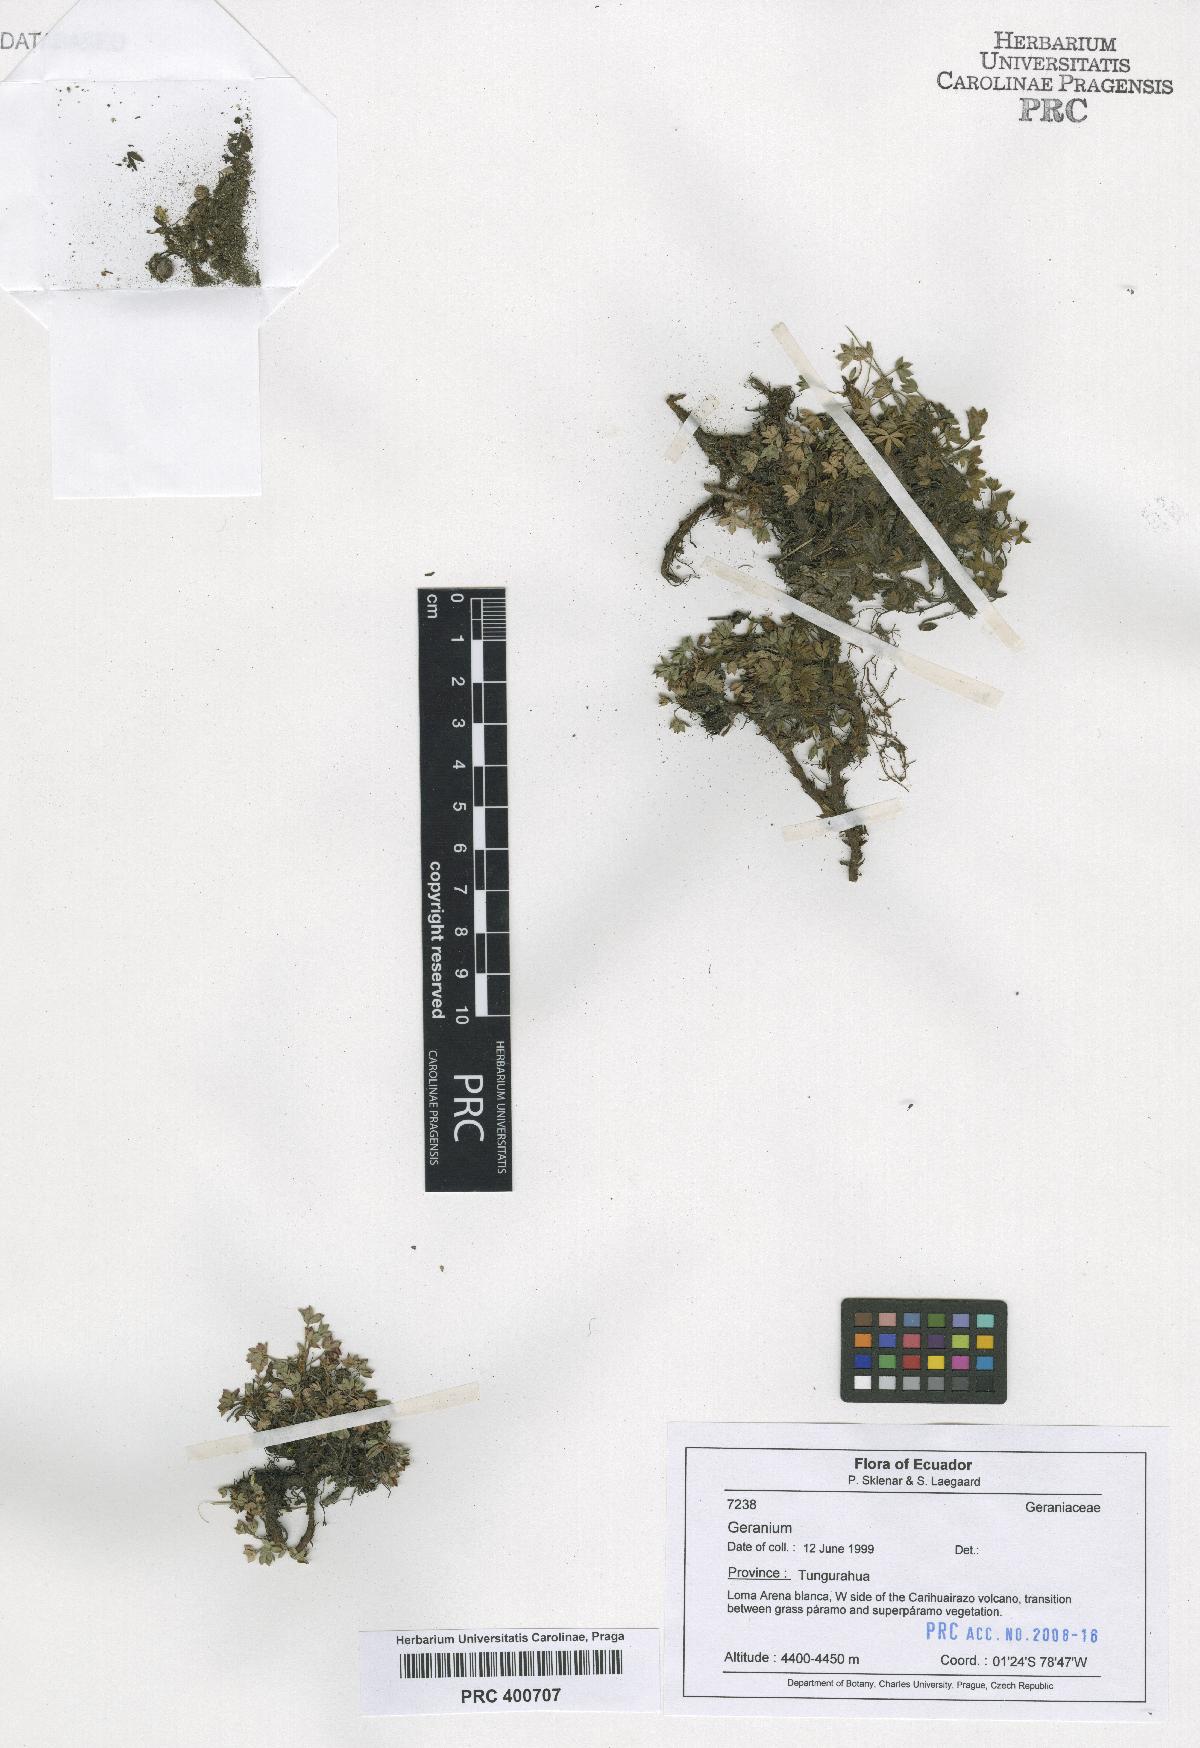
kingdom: Plantae
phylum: Tracheophyta
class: Magnoliopsida
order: Geraniales
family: Geraniaceae
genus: Geranium
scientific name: Geranium sibbaldioides
